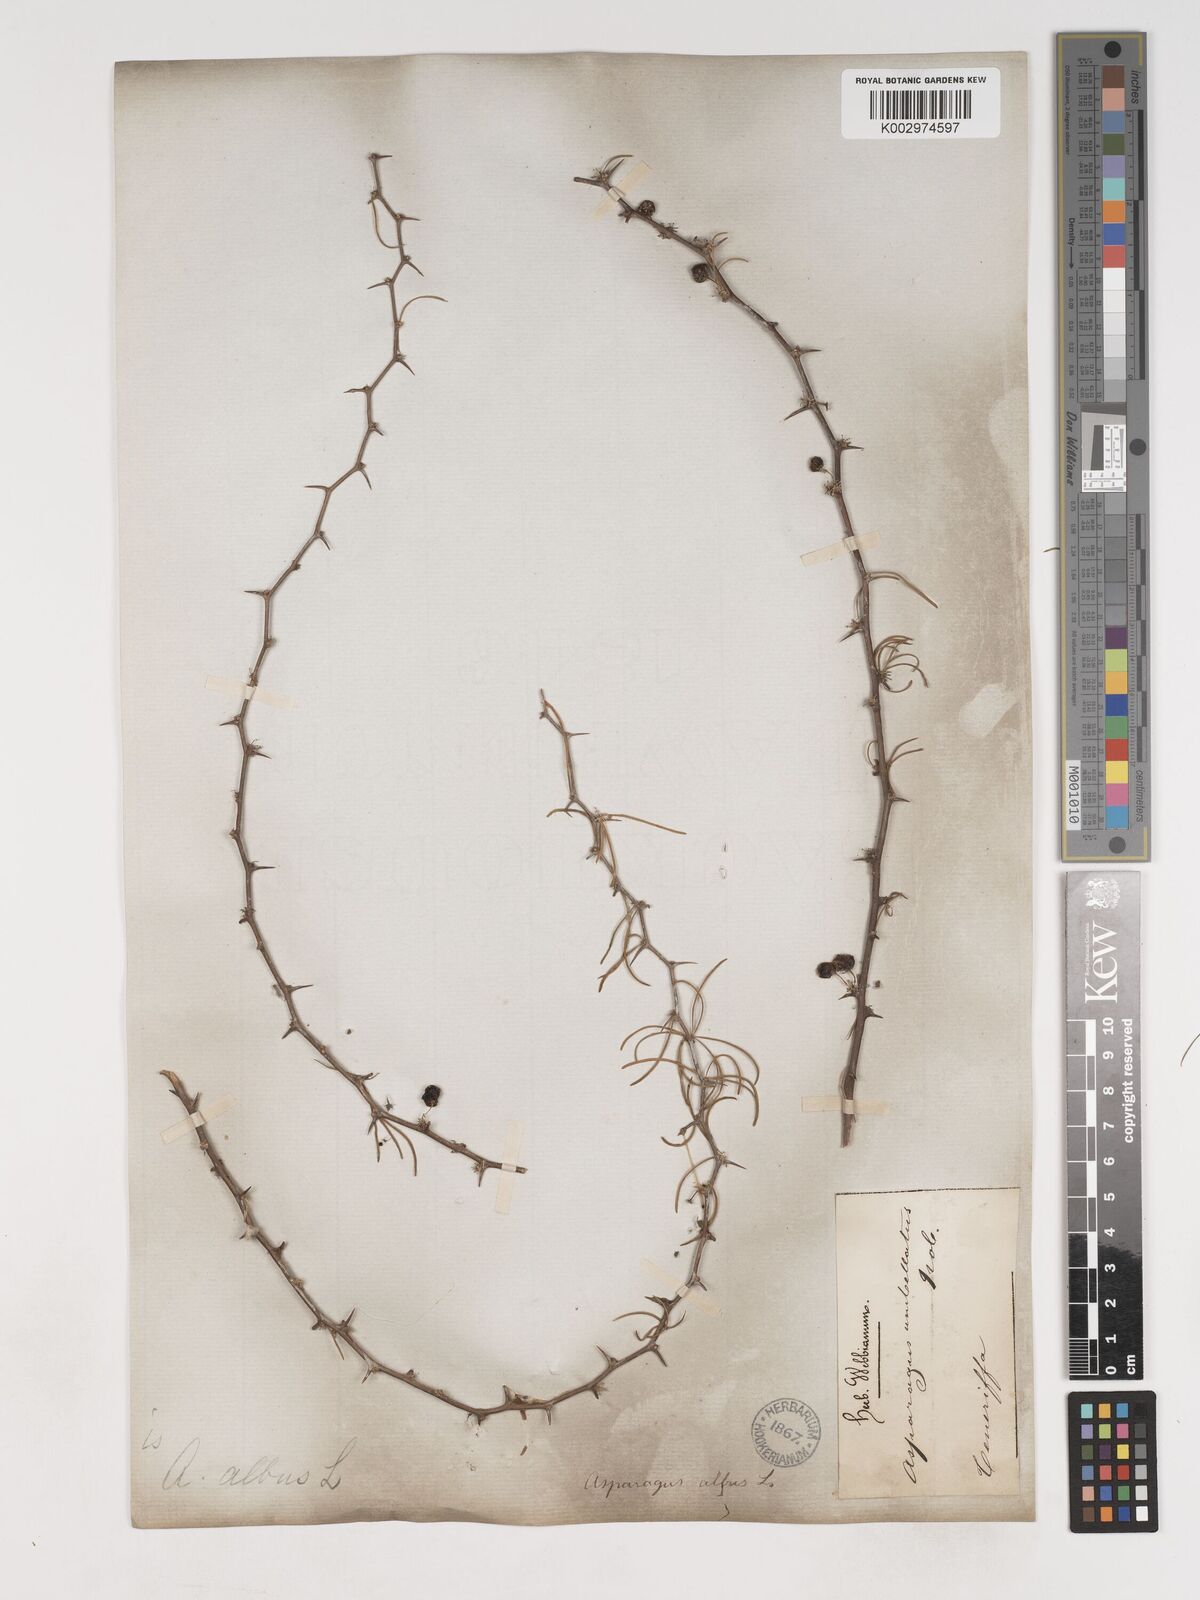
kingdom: Plantae
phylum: Tracheophyta
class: Liliopsida
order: Asparagales
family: Asparagaceae
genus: Asparagus
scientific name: Asparagus albus
